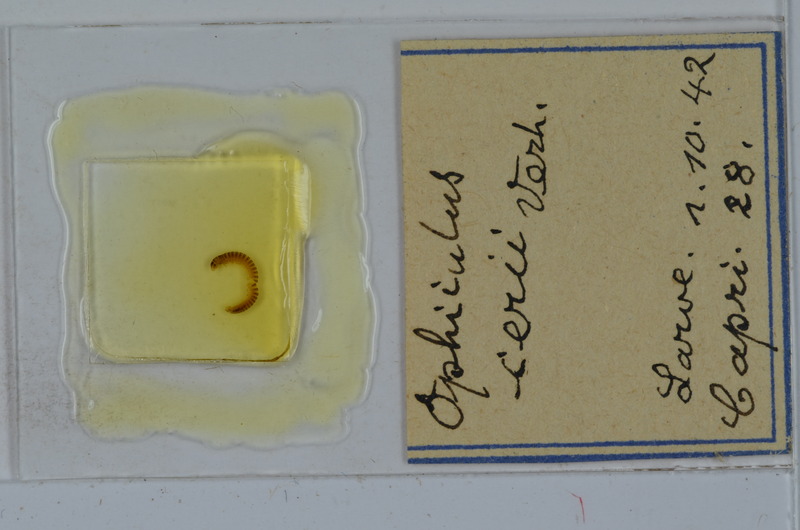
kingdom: Animalia
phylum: Arthropoda
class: Diplopoda
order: Julida
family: Julidae
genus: Ophyiulus
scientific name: Ophyiulus cerii
